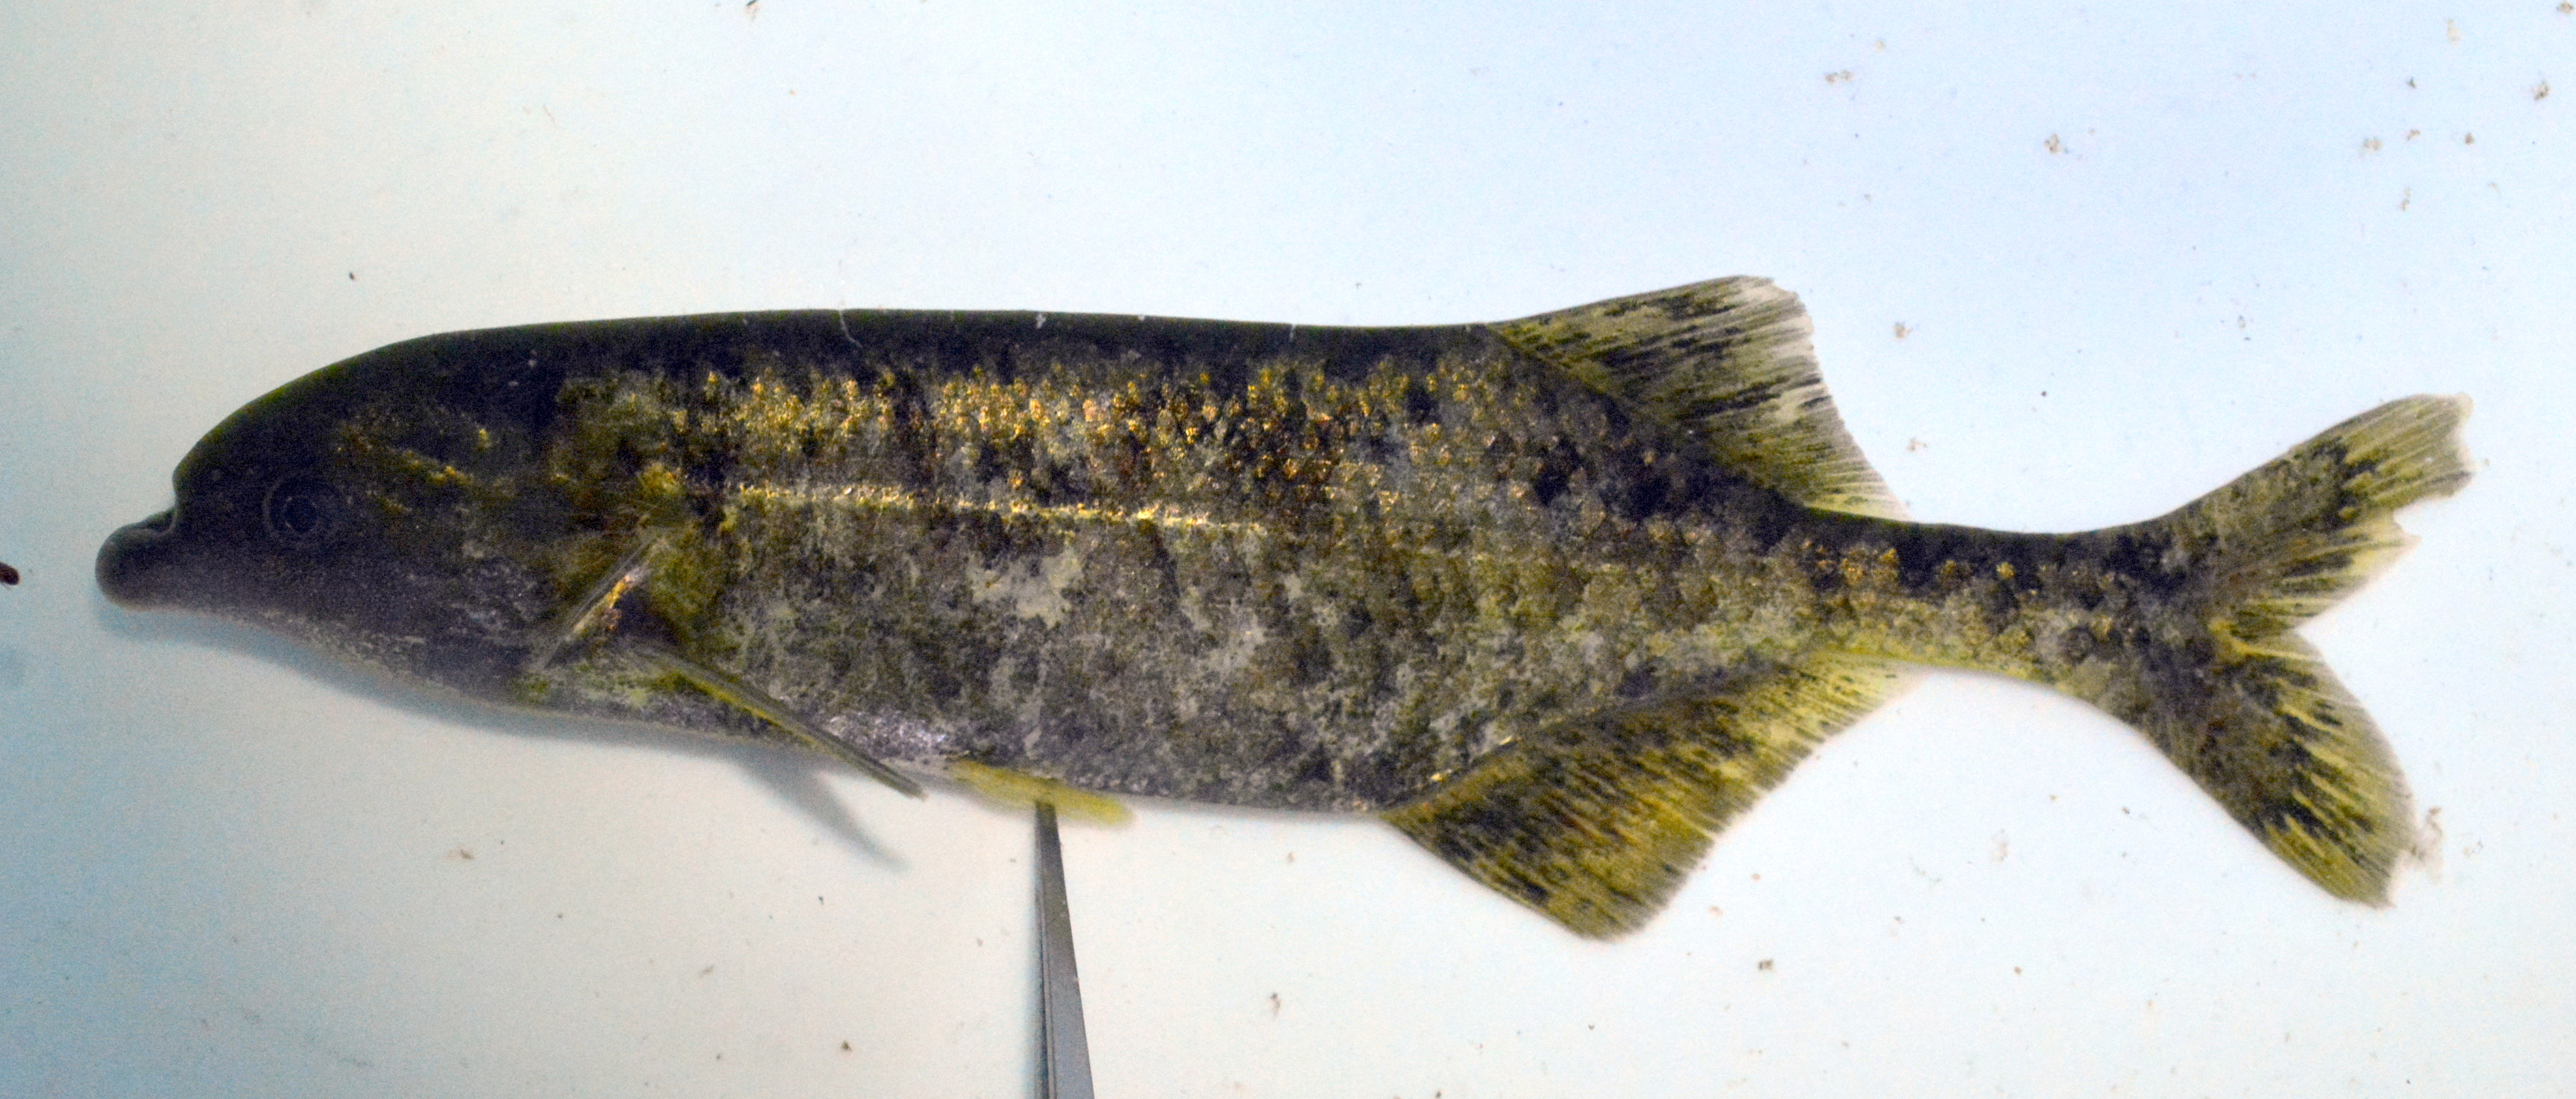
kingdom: Animalia
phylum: Chordata
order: Osteoglossiformes
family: Mormyridae
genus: Marcusenius
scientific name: Marcusenius altisambesi
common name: Bulldog
